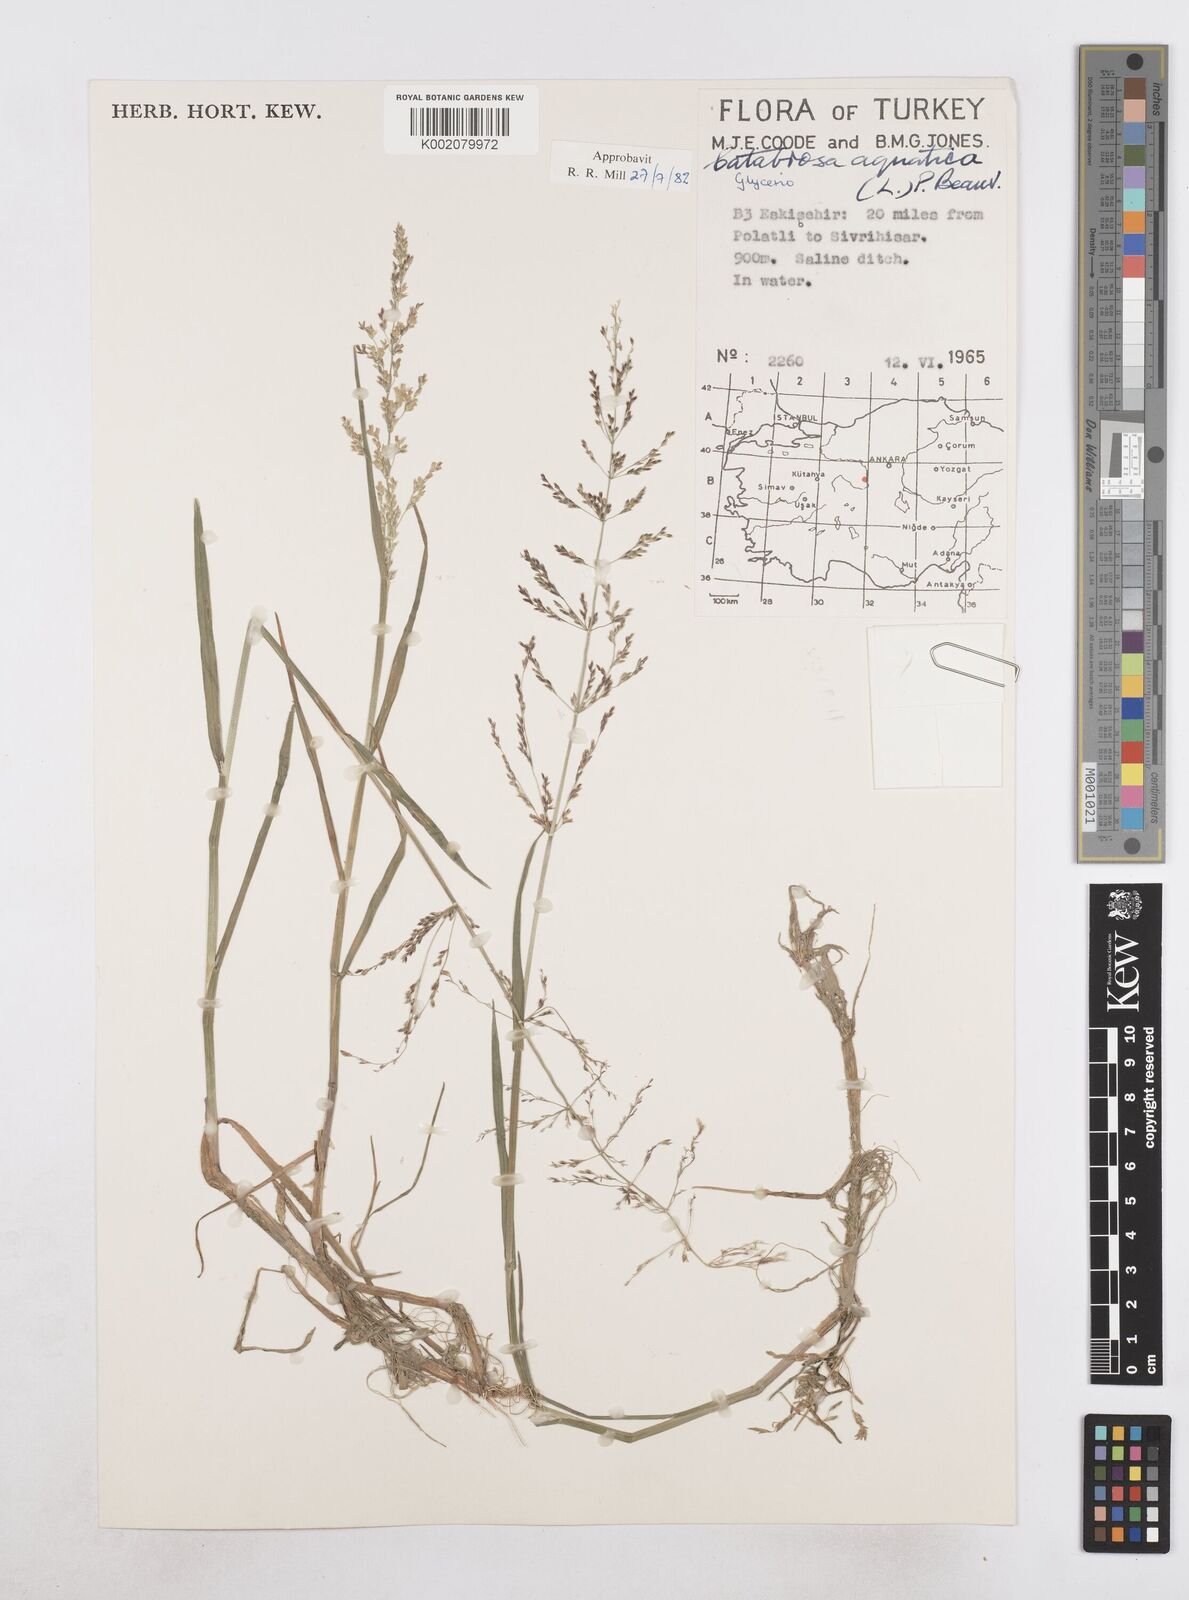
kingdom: Plantae
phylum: Tracheophyta
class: Liliopsida
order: Poales
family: Poaceae
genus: Catabrosa
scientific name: Catabrosa aquatica
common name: Whorl-grass
